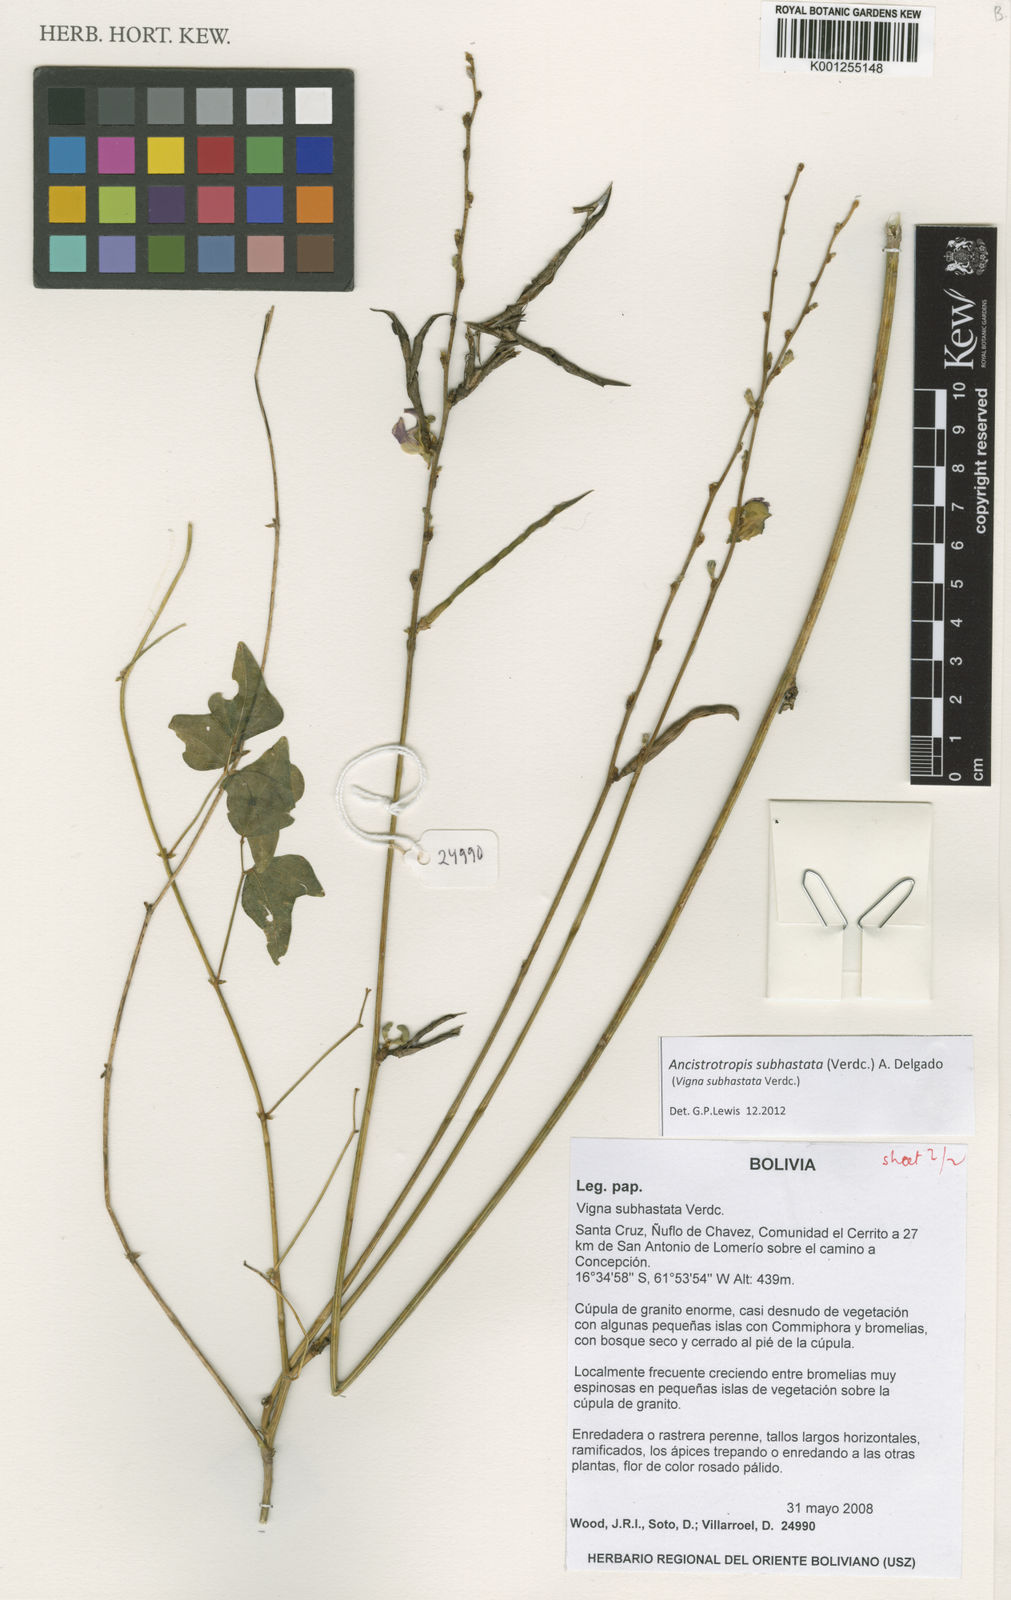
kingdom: Plantae
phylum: Tracheophyta
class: Magnoliopsida
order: Fabales
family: Fabaceae
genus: Ancistrotropis
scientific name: Ancistrotropis subhastata
